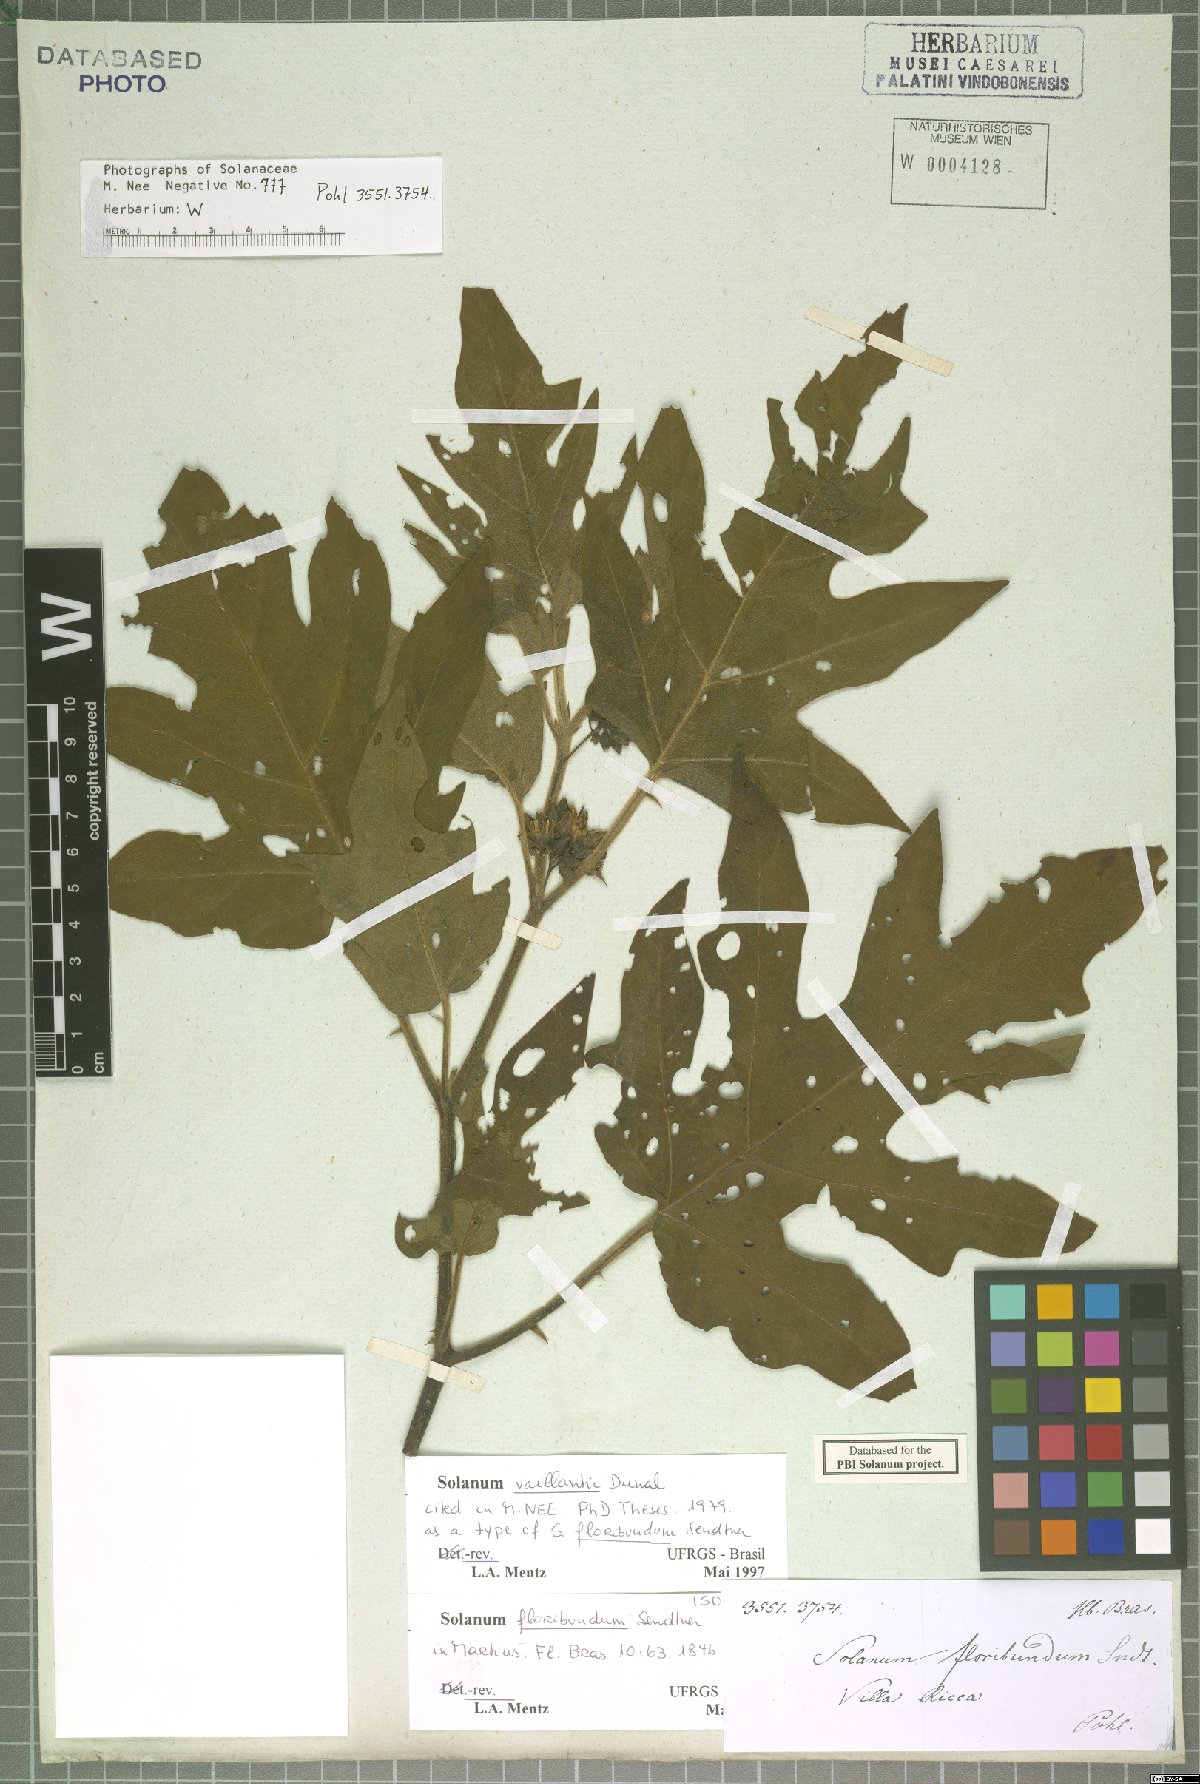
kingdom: Plantae
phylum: Tracheophyta
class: Magnoliopsida
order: Solanales
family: Solanaceae
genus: Solanum
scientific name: Solanum vaillantii
